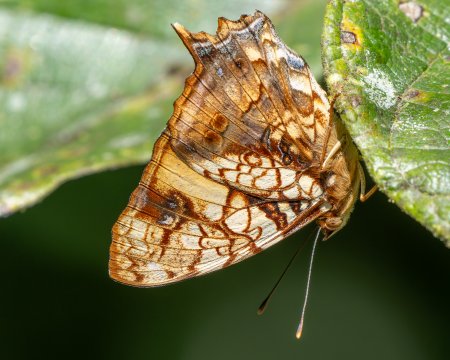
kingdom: Animalia
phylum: Arthropoda
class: Insecta
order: Lepidoptera
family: Nymphalidae
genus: Hypanartia
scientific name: Hypanartia lethe
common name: Orange Mapwing
